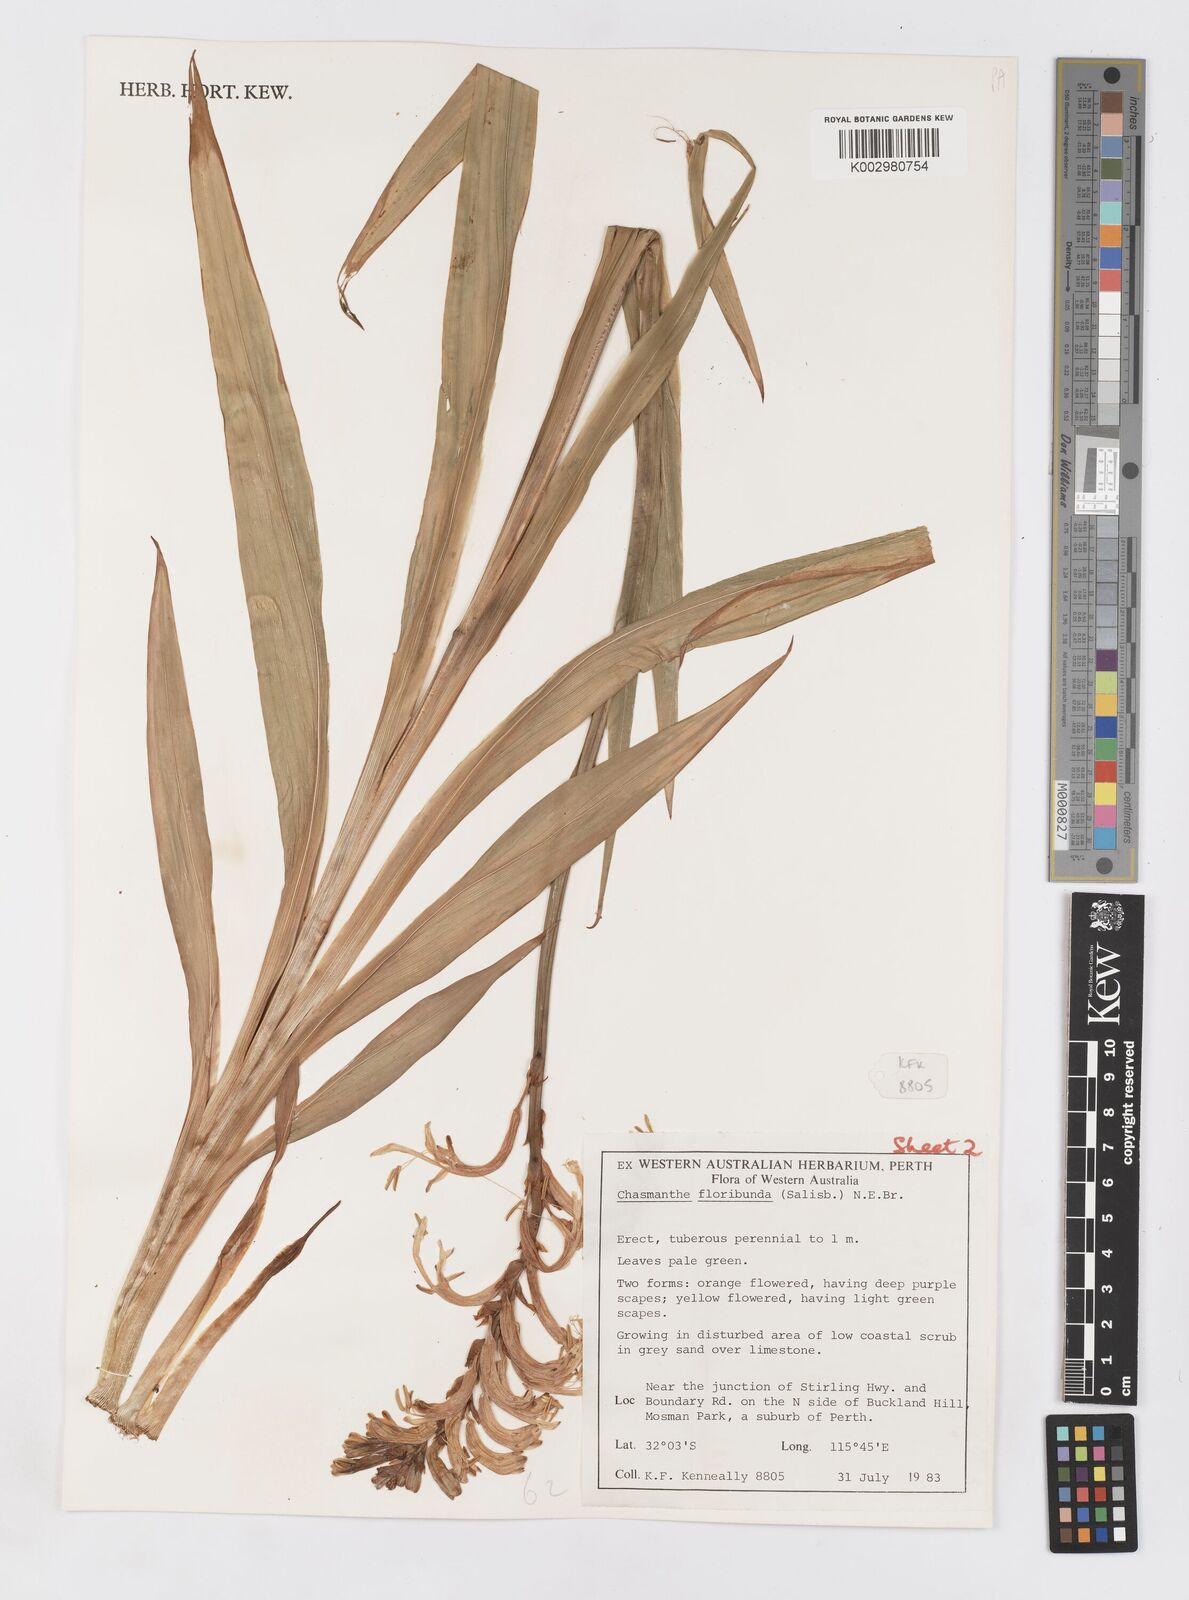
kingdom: Plantae
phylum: Tracheophyta
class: Liliopsida
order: Asparagales
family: Iridaceae
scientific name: Iridaceae
